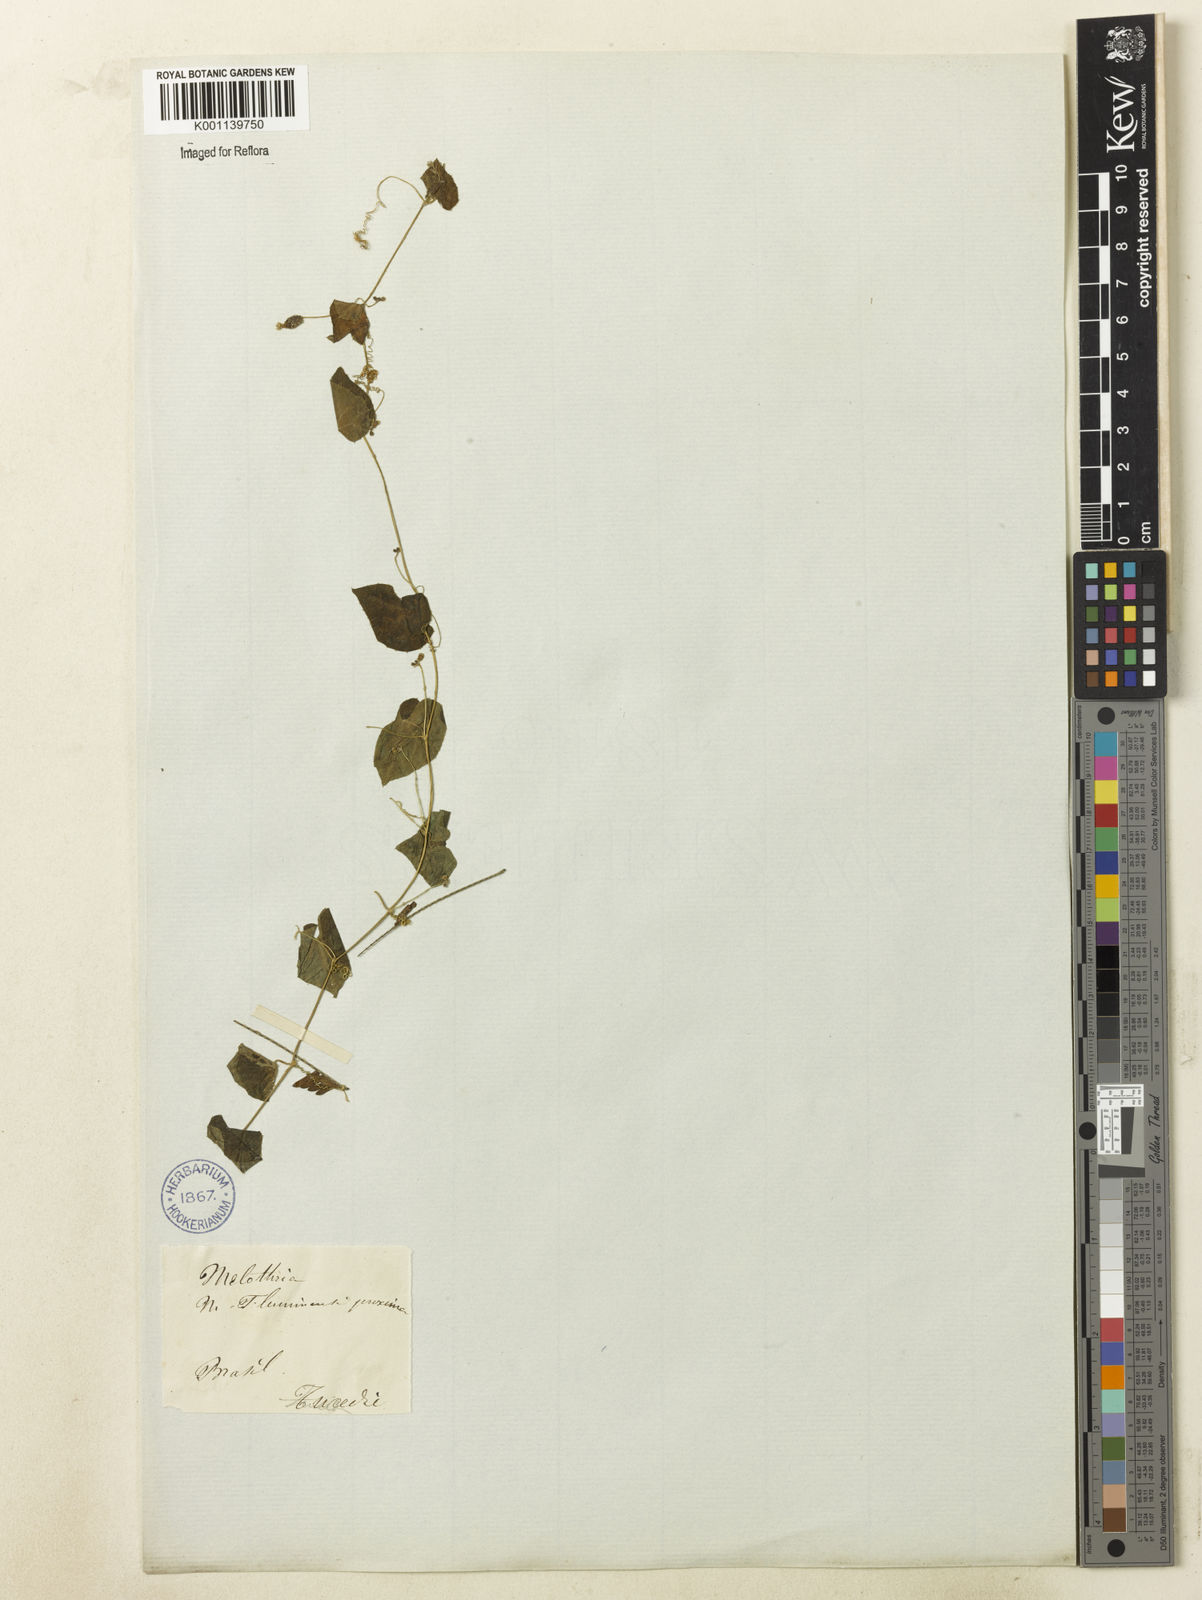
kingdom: Plantae
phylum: Tracheophyta
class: Magnoliopsida
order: Cucurbitales
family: Cucurbitaceae
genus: Melothria
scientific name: Melothria pendula
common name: Creeping-cucumber
